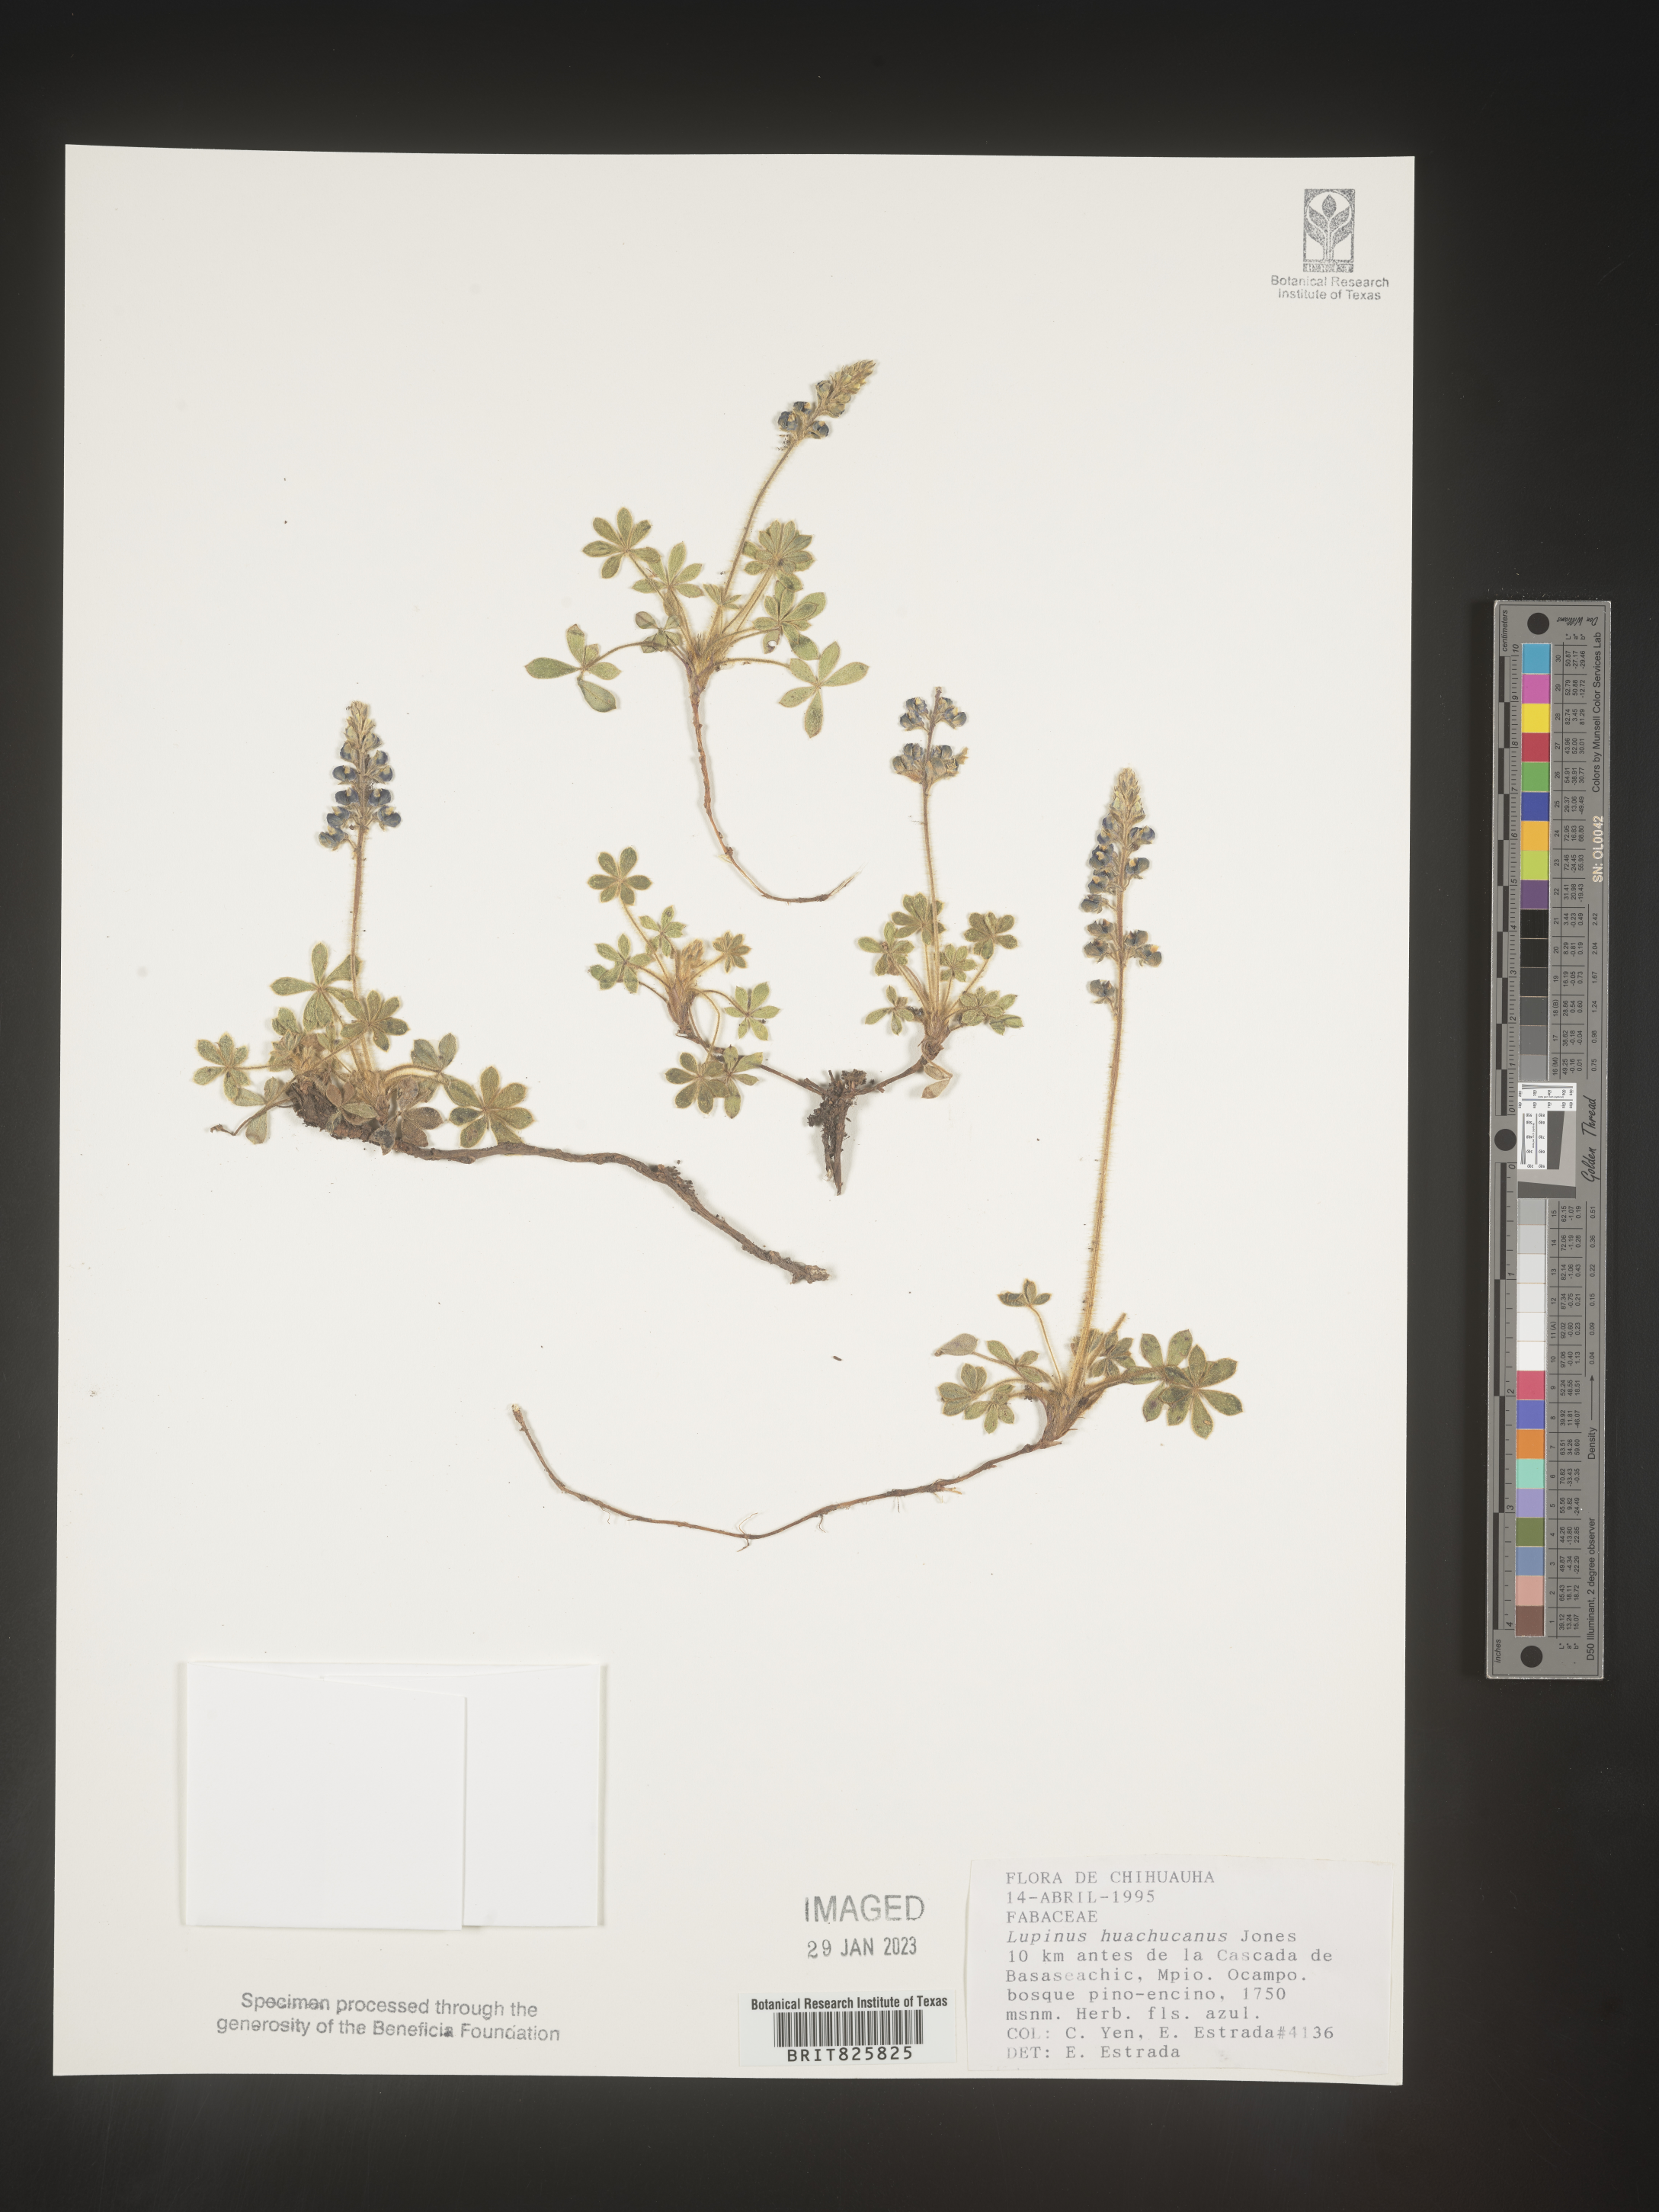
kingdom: Plantae
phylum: Tracheophyta
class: Magnoliopsida
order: Fabales
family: Fabaceae
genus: Lupinus
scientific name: Lupinus
